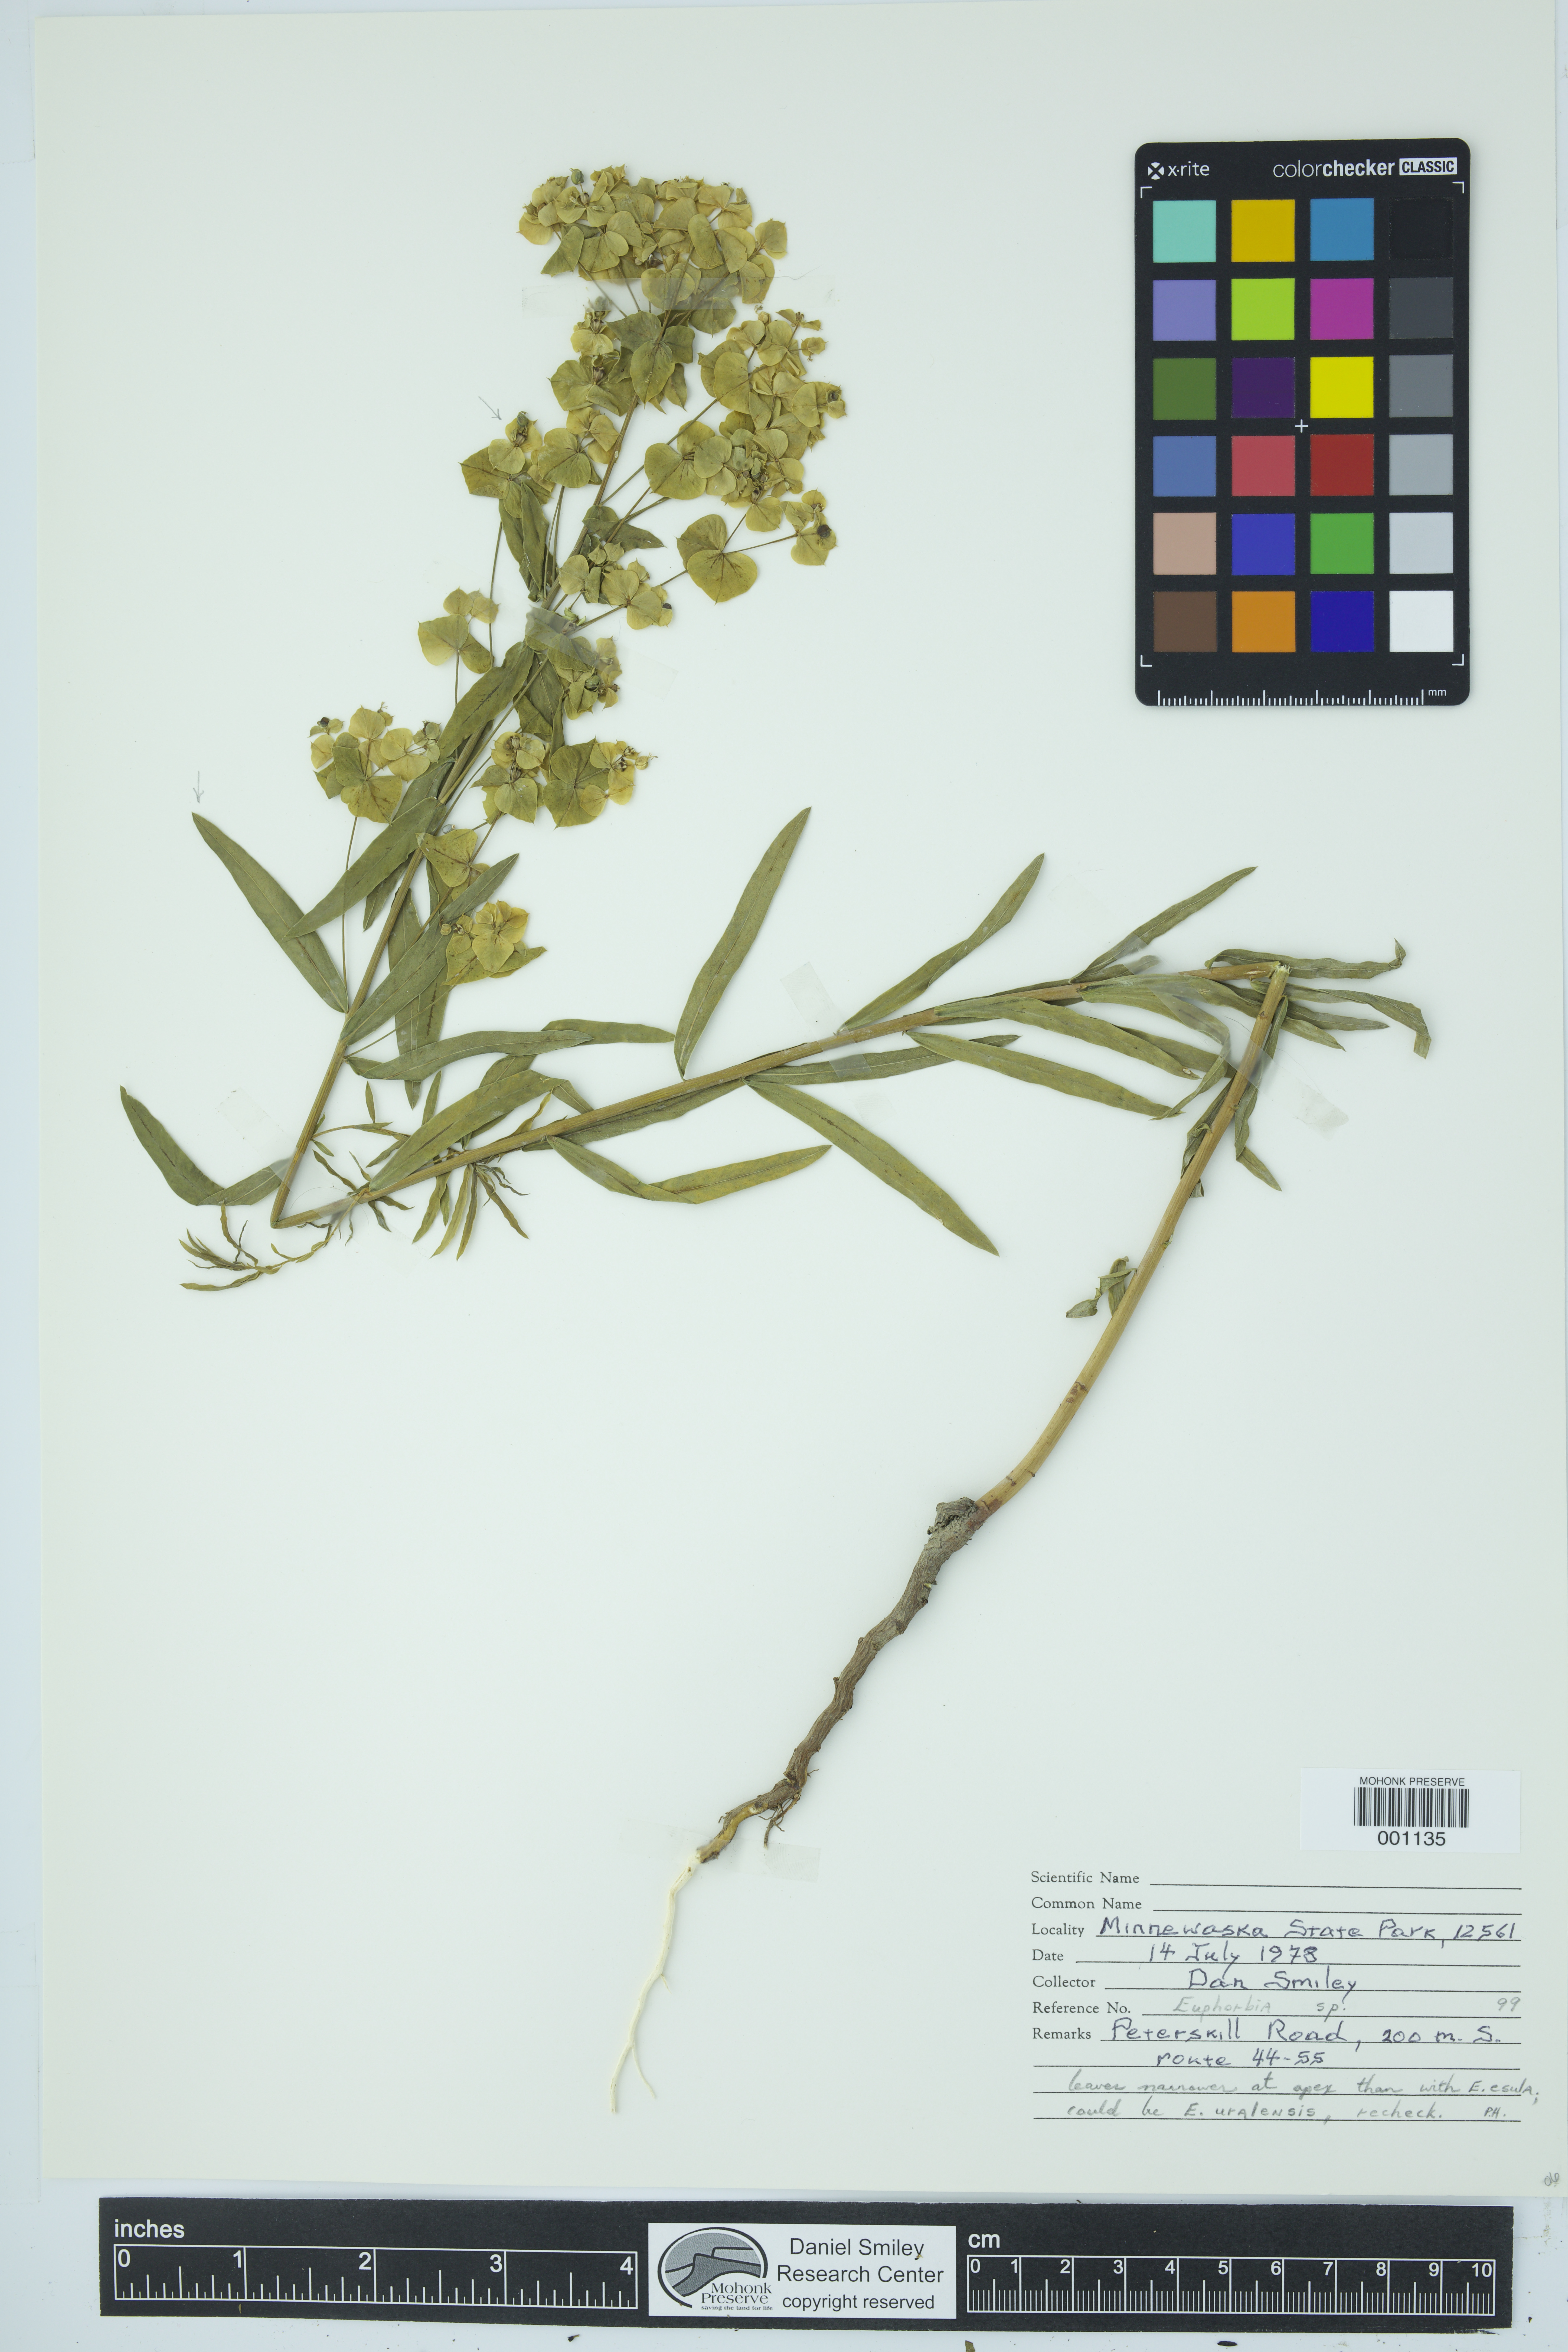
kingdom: Plantae
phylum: Tracheophyta
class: Magnoliopsida
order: Malpighiales
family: Euphorbiaceae
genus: Euphorbia
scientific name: Euphorbia
